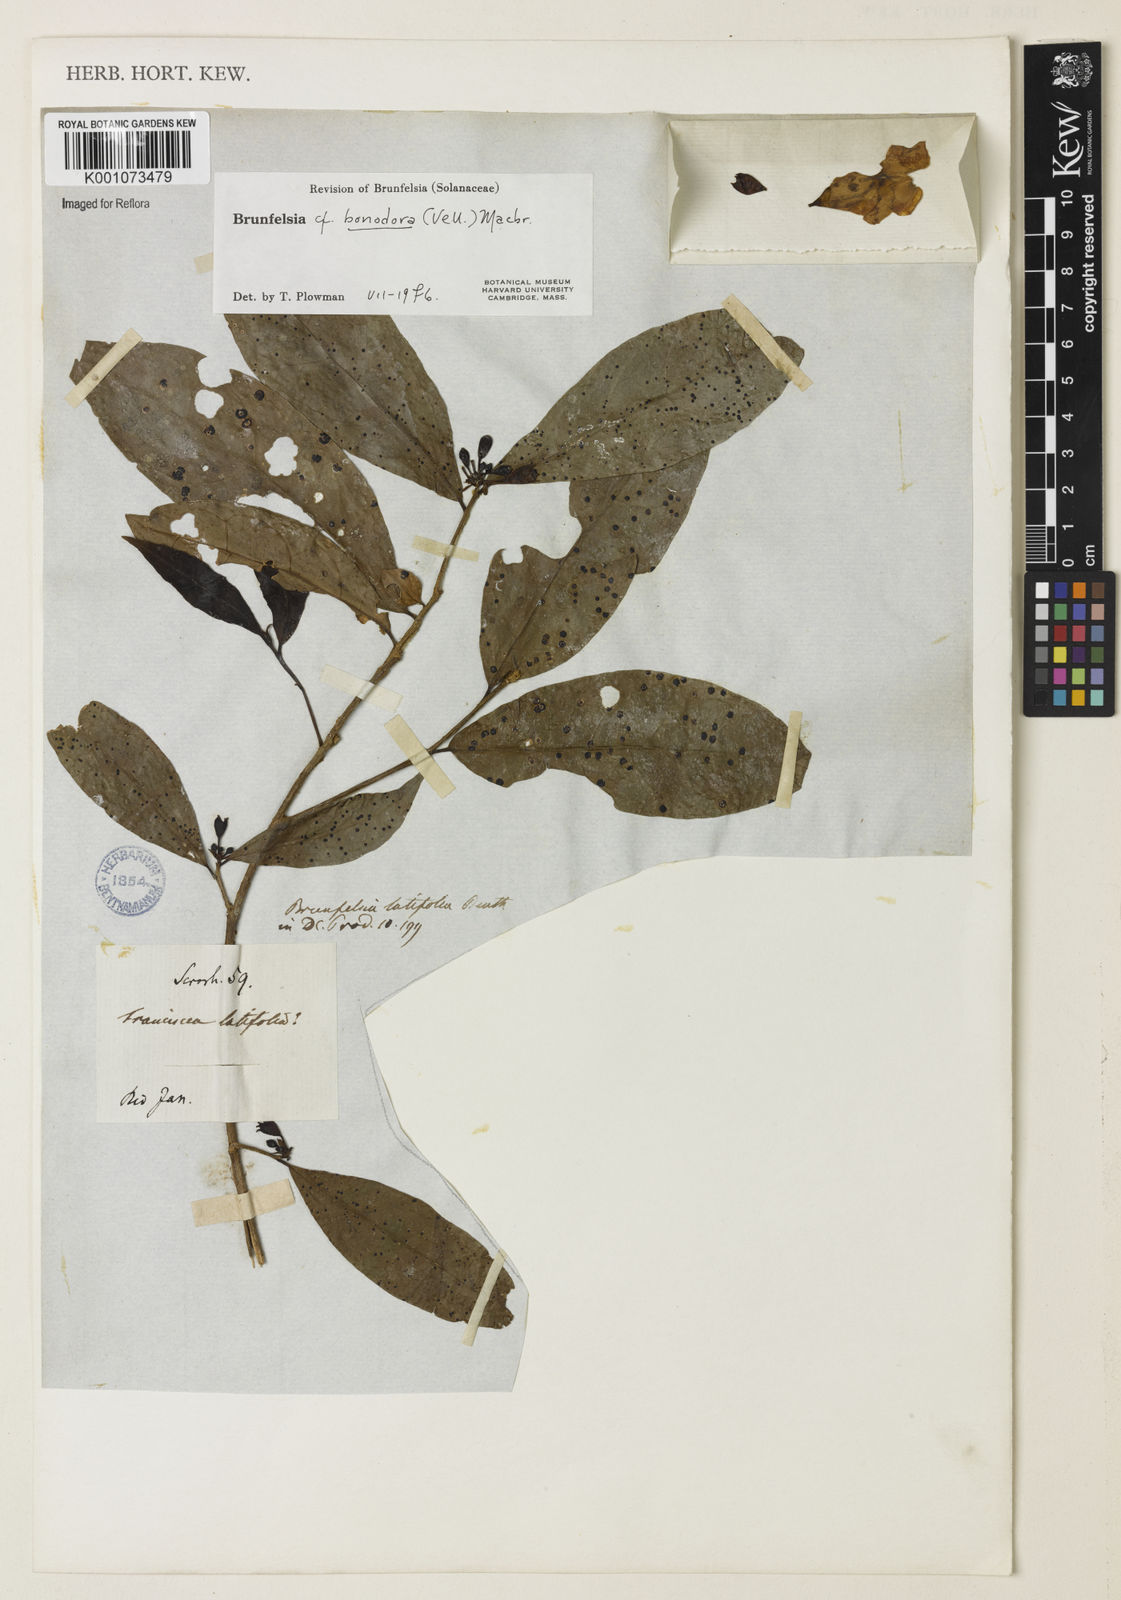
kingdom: Plantae
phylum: Tracheophyta
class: Magnoliopsida
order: Solanales
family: Solanaceae
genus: Brunfelsia
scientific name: Brunfelsia bonodora
